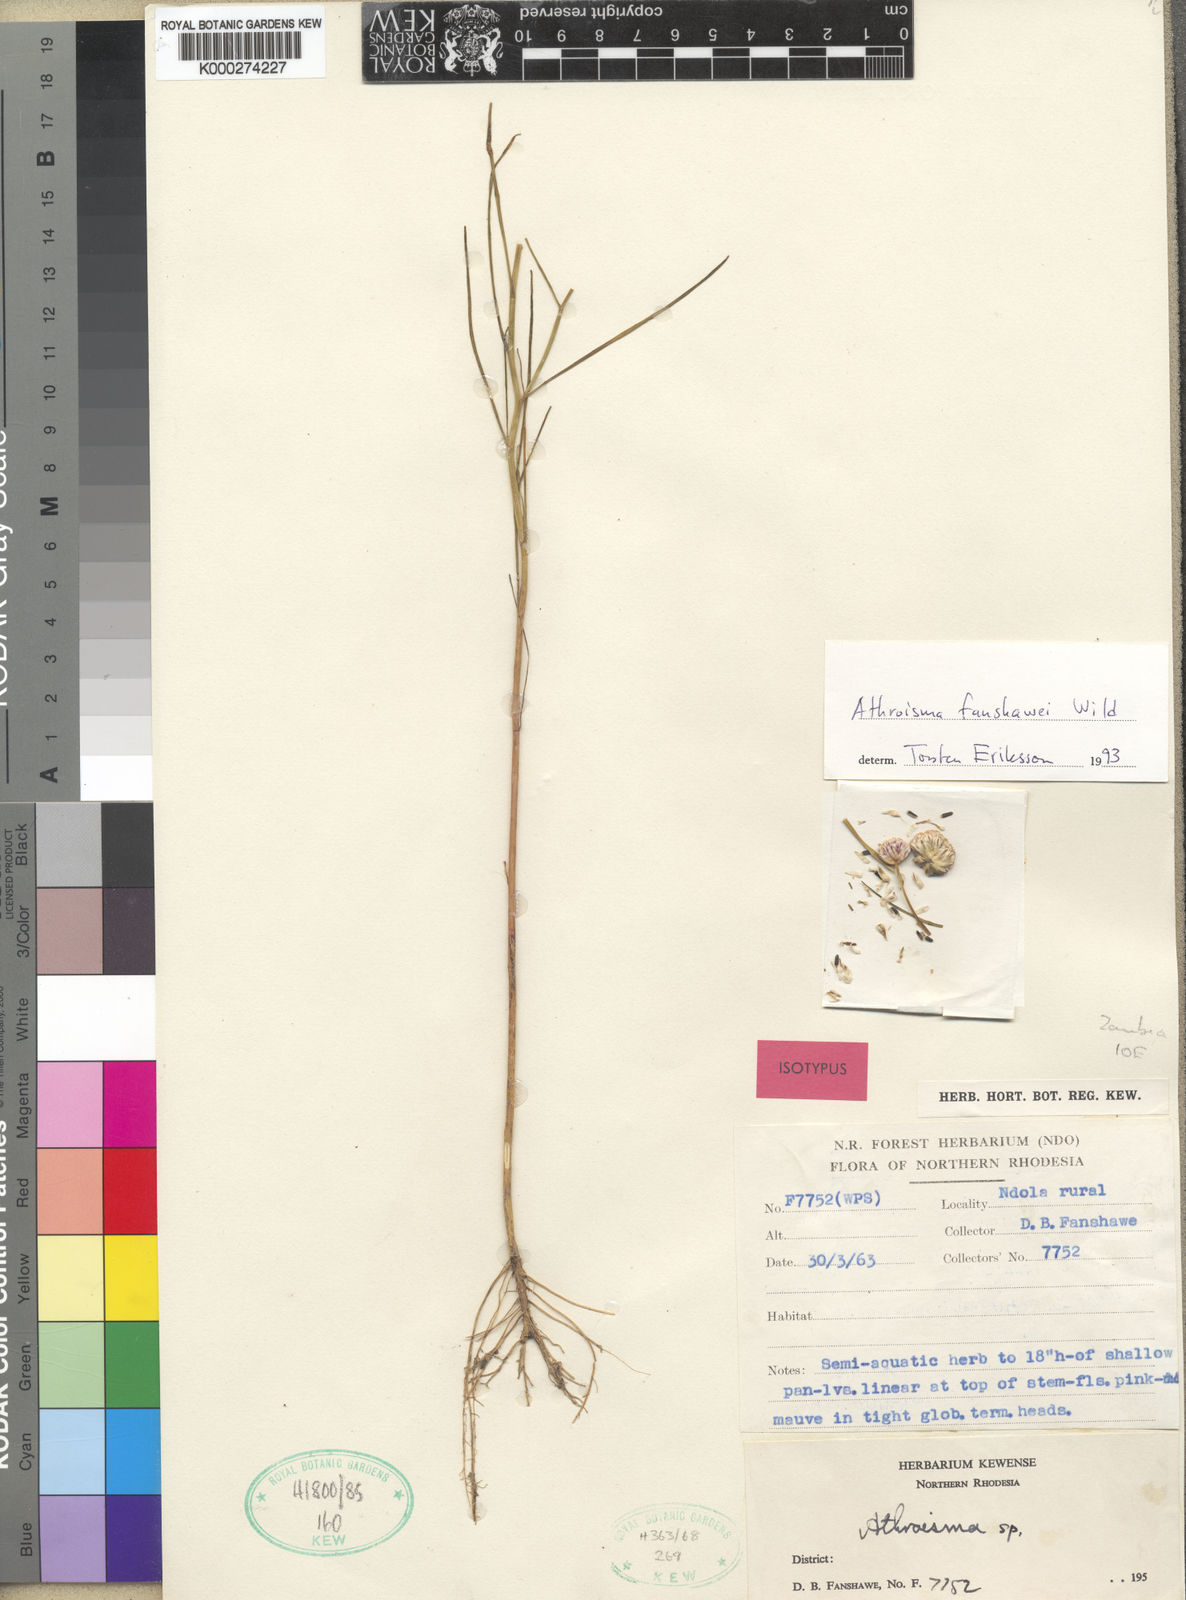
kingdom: Plantae
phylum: Tracheophyta
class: Magnoliopsida
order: Asterales
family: Asteraceae
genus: Athroisma
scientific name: Athroisma fanshawei
